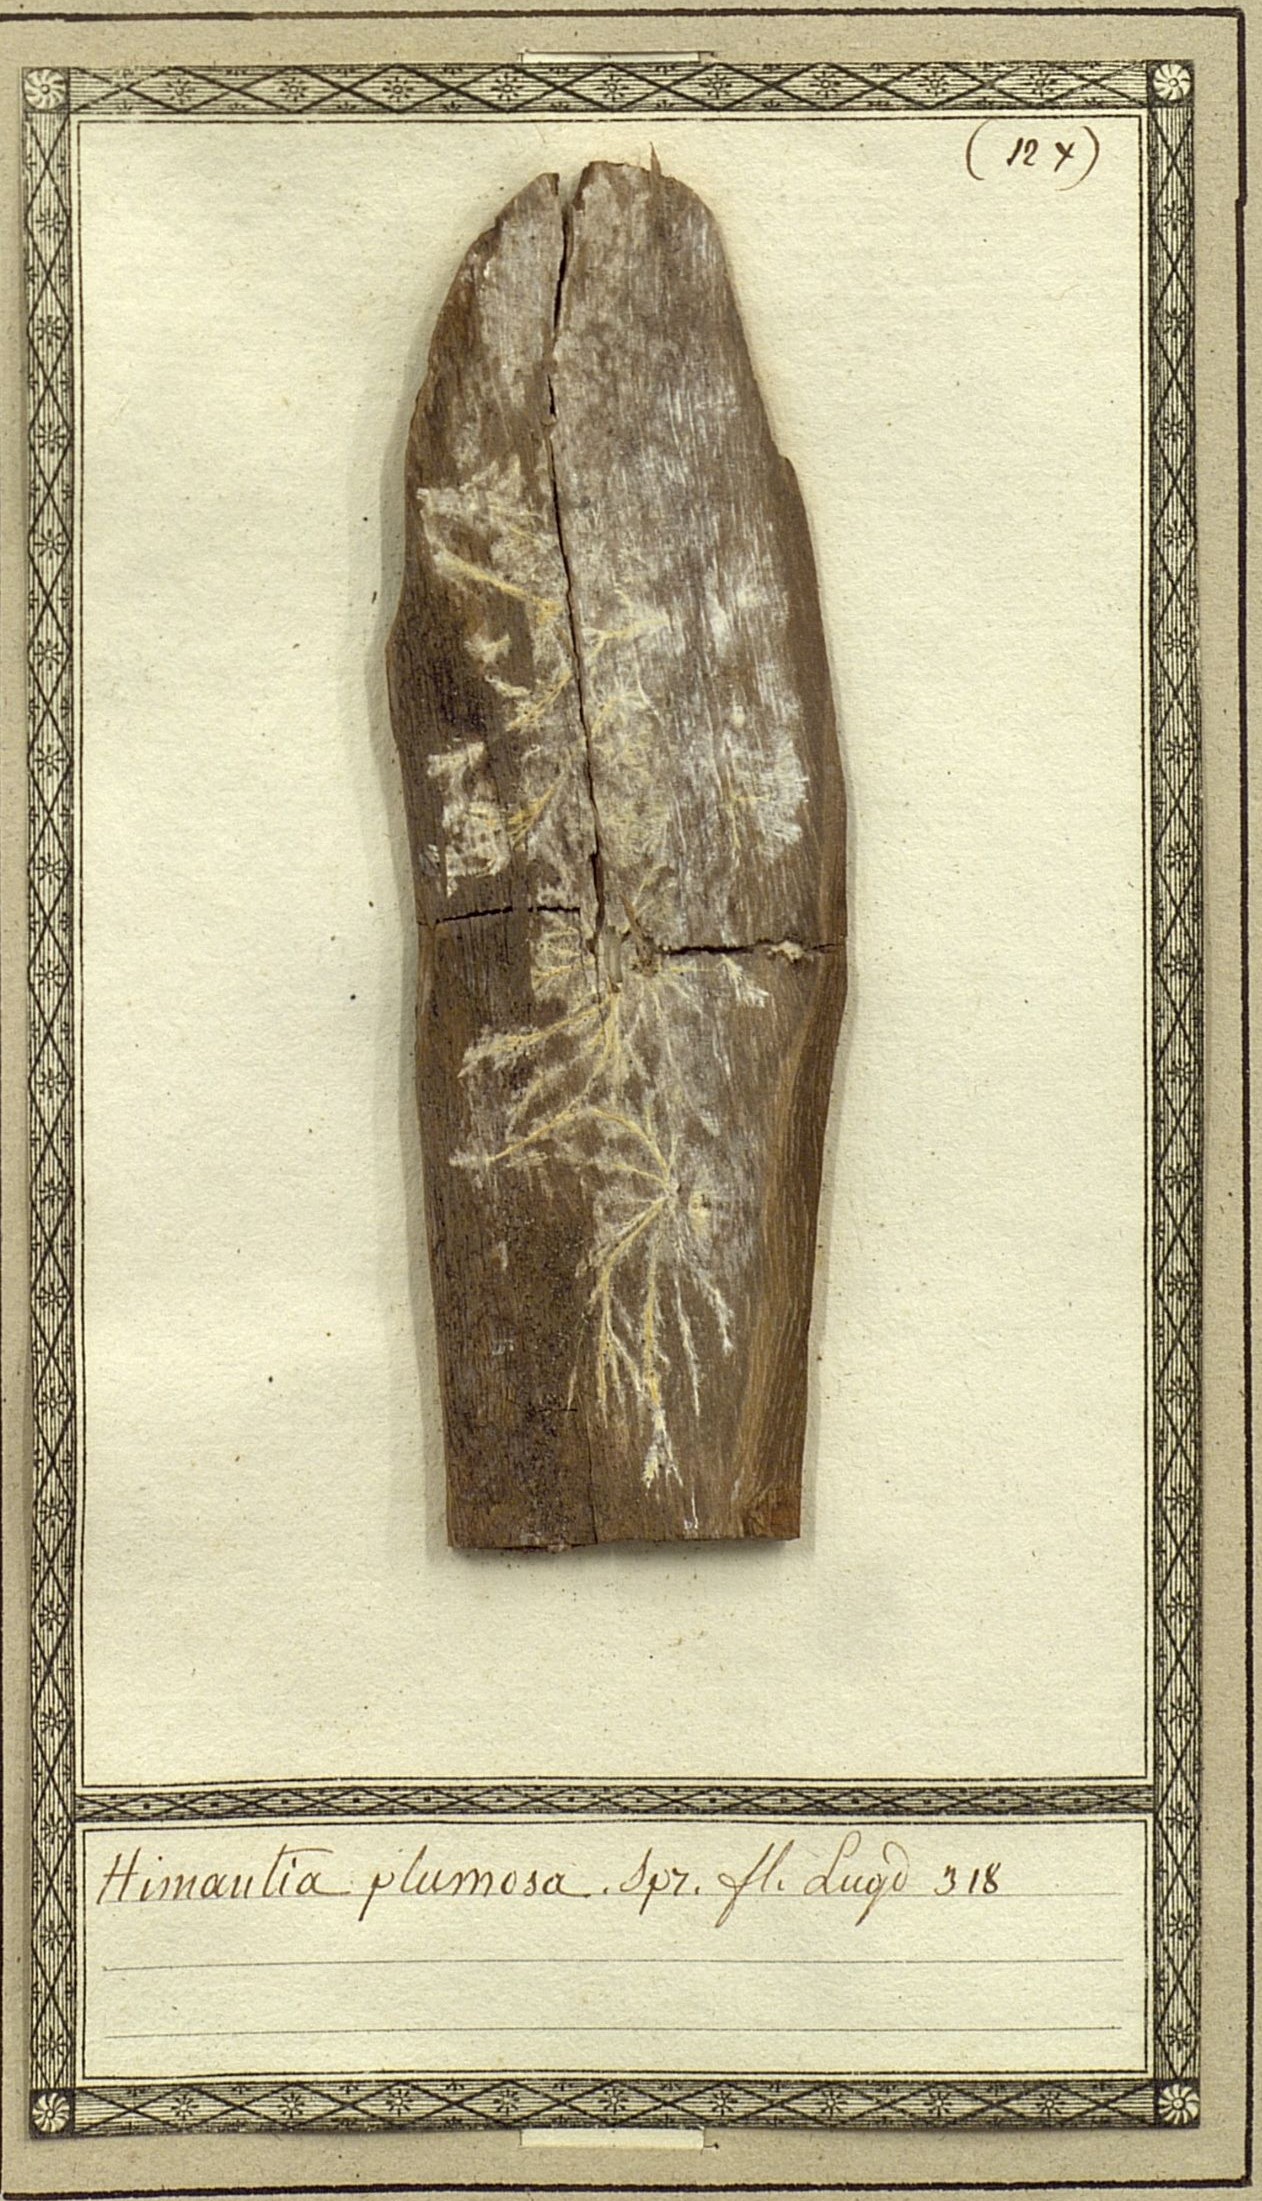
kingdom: Fungi
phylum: Ascomycota
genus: Himantia
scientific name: Himantia plumosa
